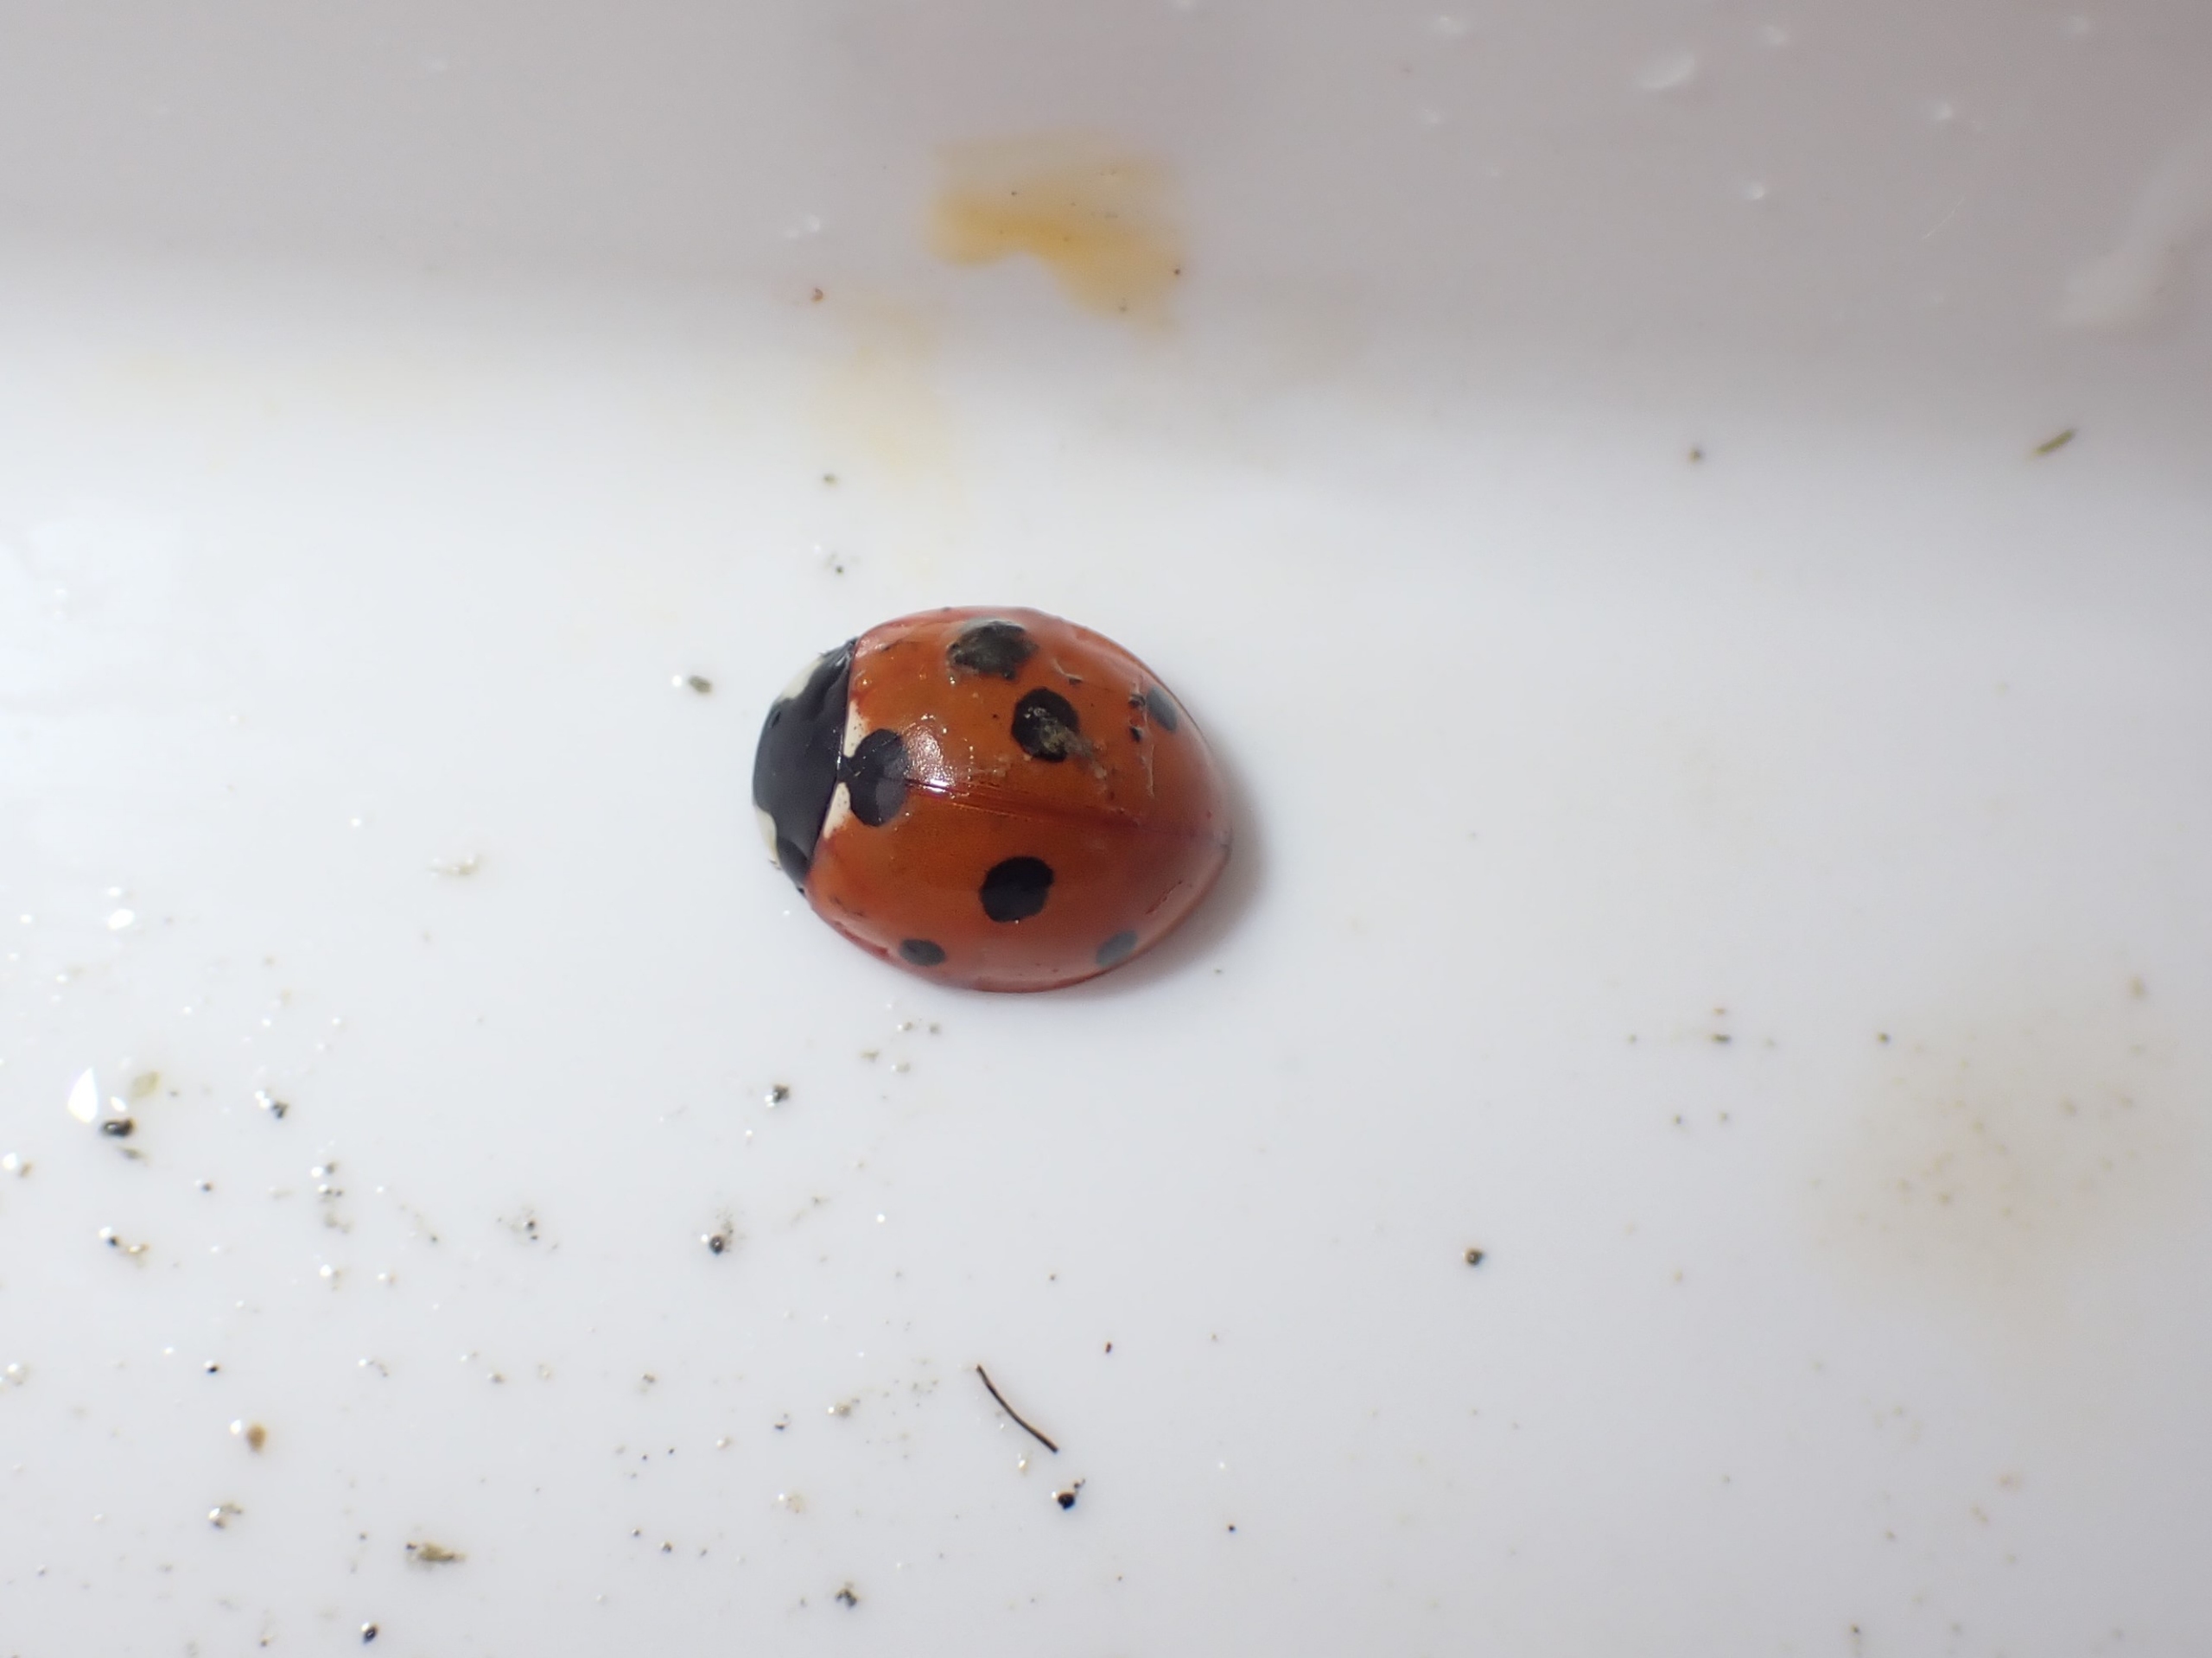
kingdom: Animalia
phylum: Arthropoda
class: Insecta
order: Coleoptera
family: Coccinellidae
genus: Coccinella
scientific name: Coccinella septempunctata
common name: Syvplettet mariehøne
